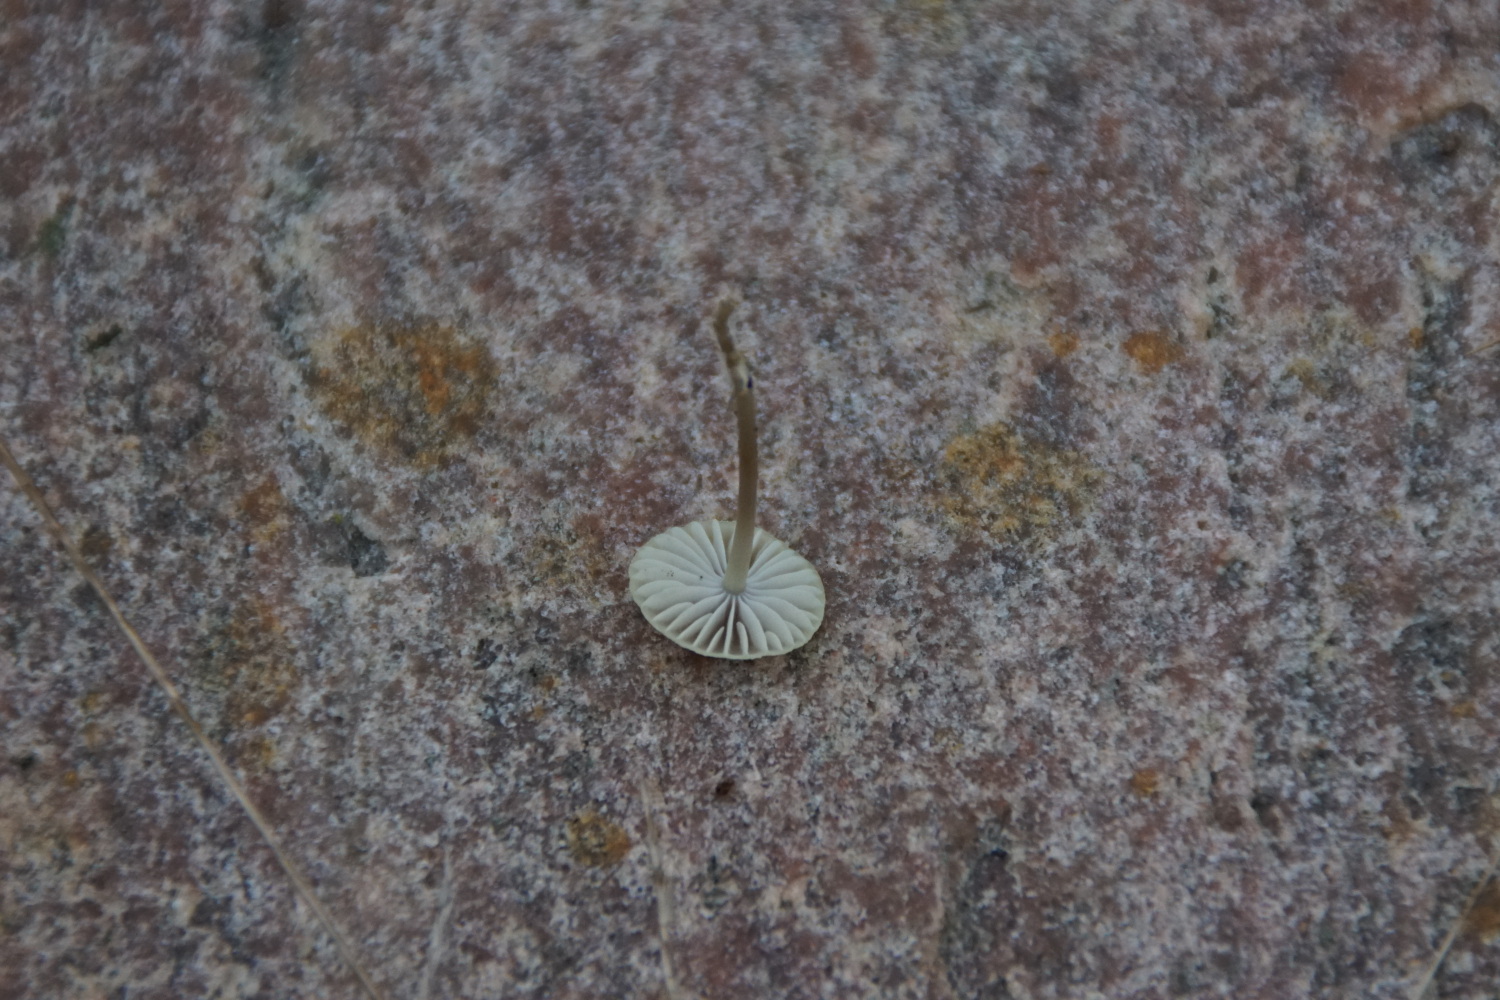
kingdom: Fungi
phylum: Basidiomycota
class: Agaricomycetes
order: Agaricales
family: Mycenaceae
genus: Mycena
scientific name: Mycena chlorantha
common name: klit-huesvamp
